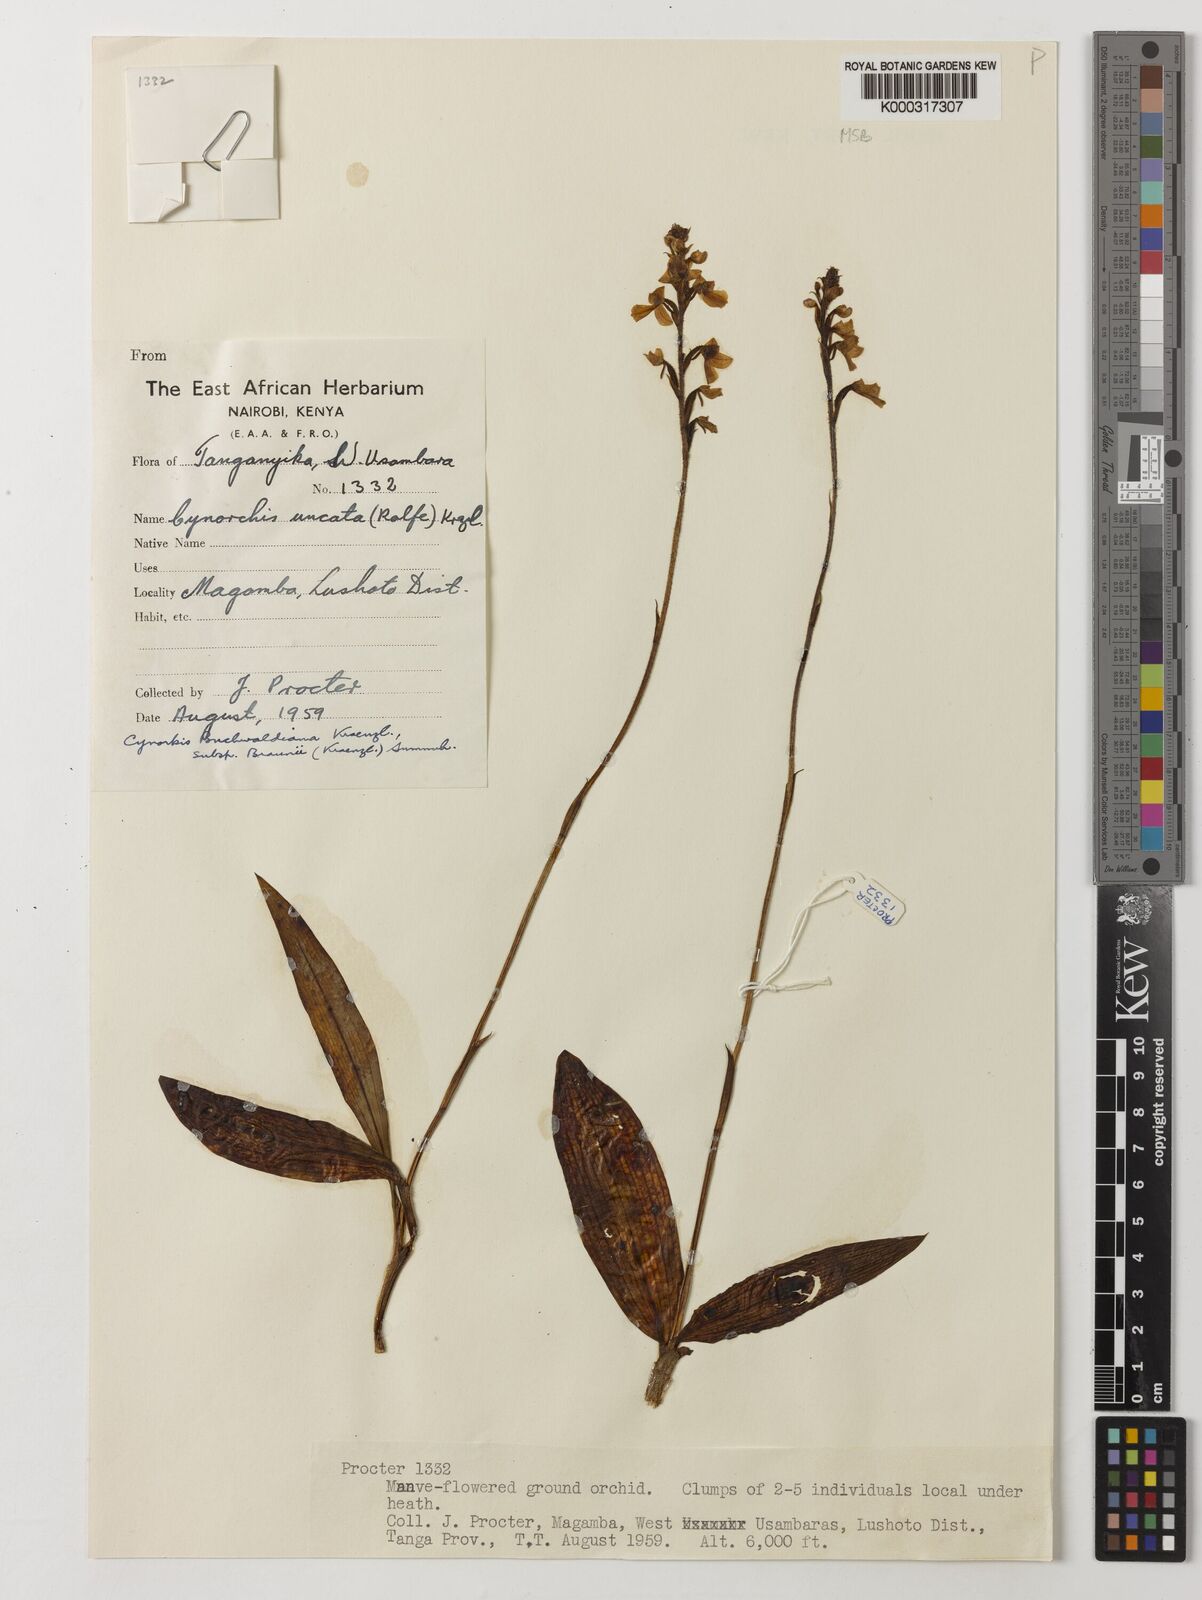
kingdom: Plantae
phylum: Tracheophyta
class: Liliopsida
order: Asparagales
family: Orchidaceae
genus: Cynorkis
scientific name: Cynorkis buchwaldiana
